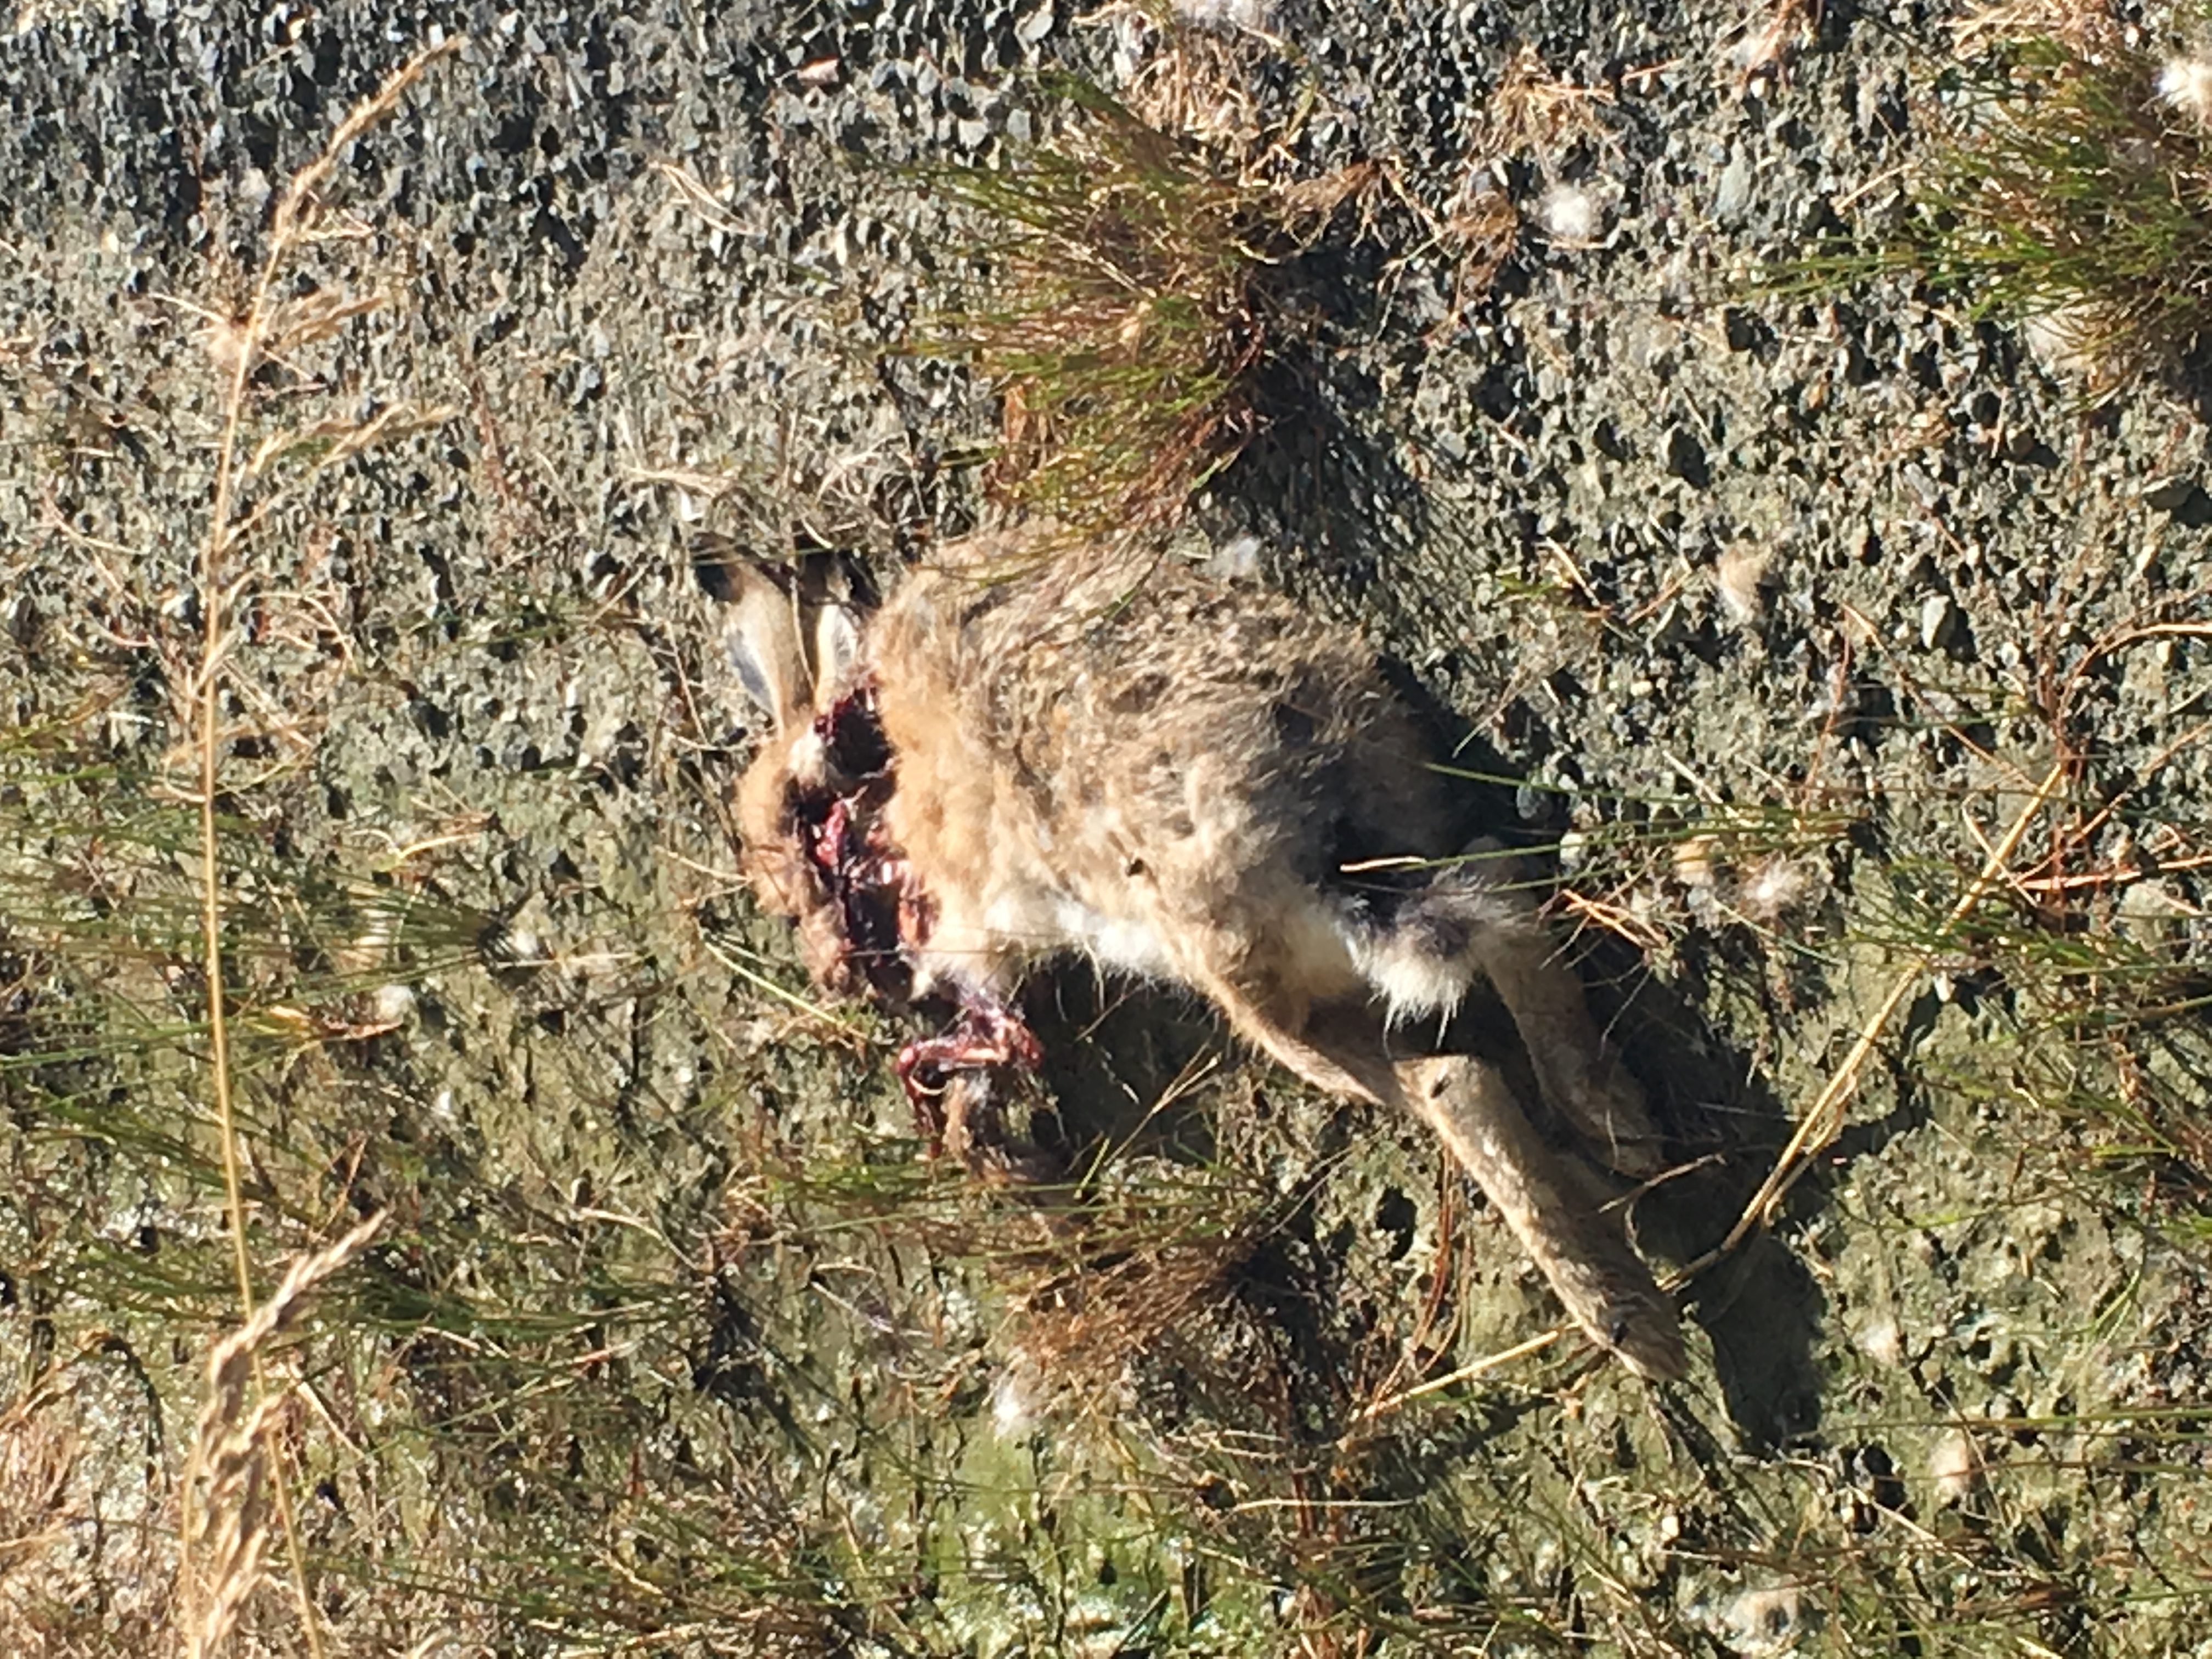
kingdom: Animalia
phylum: Chordata
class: Mammalia
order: Lagomorpha
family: Leporidae
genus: Oryctolagus
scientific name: Oryctolagus cuniculus
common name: European rabbit
